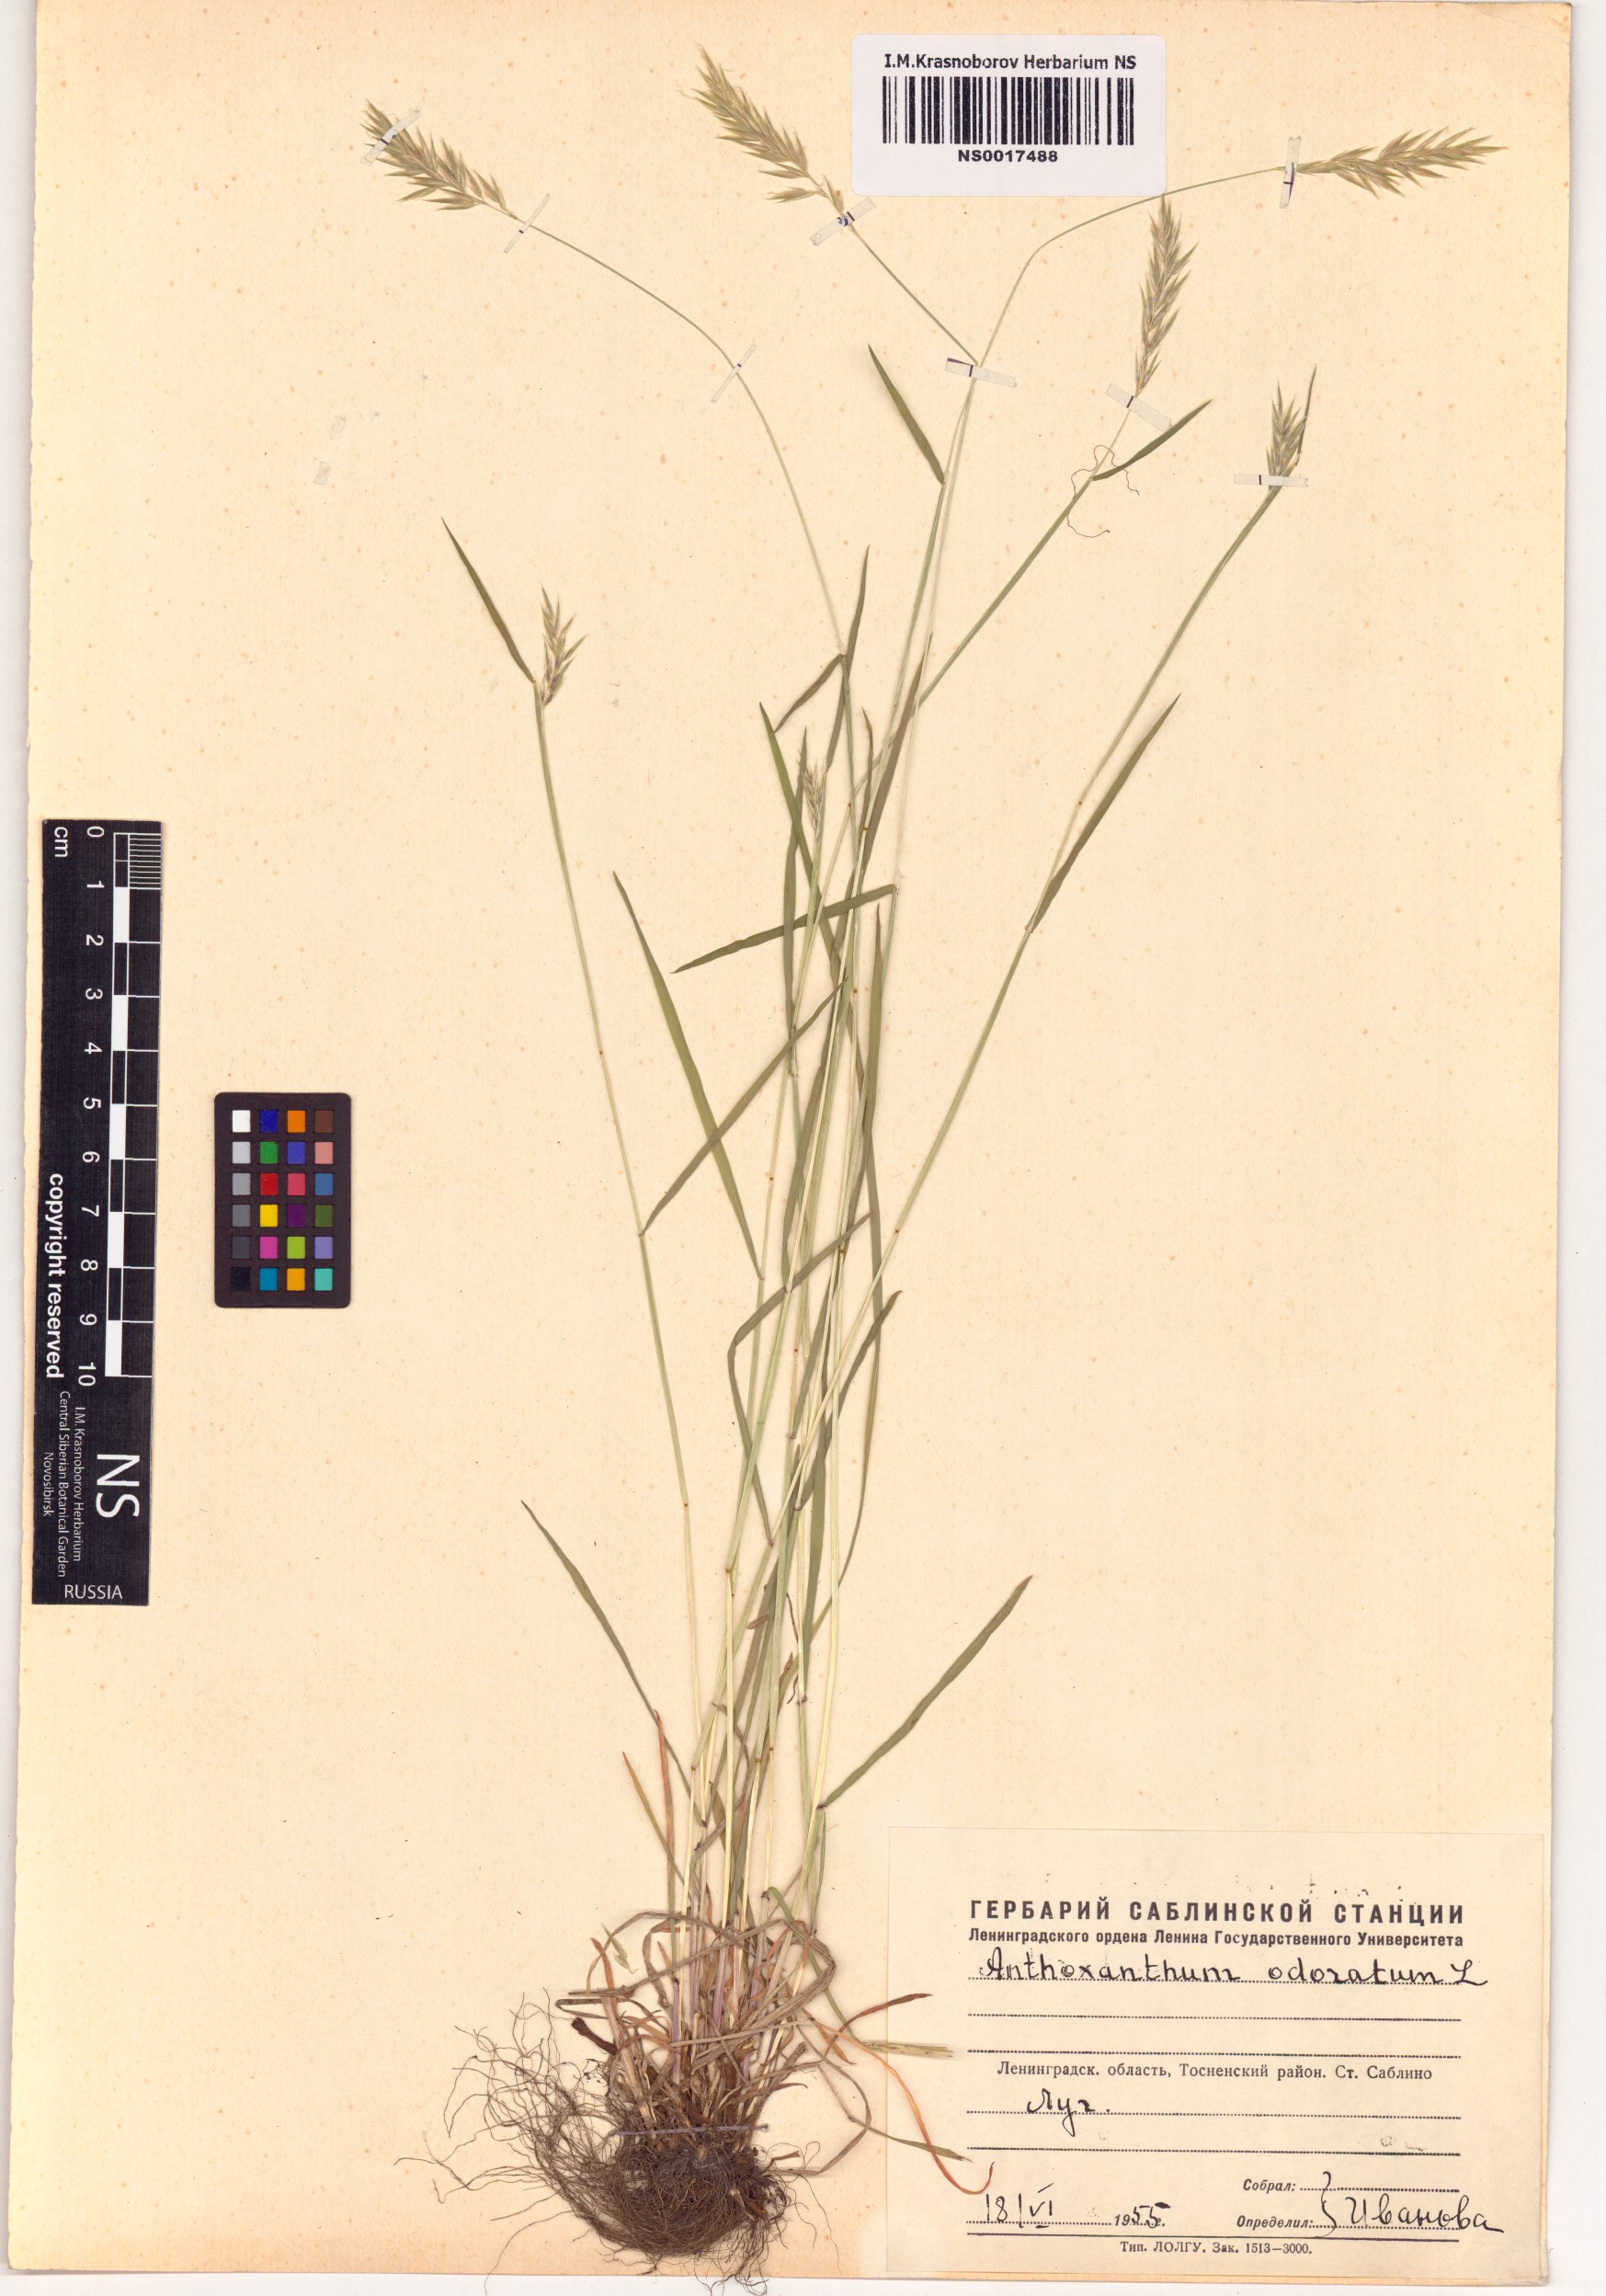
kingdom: Plantae
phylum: Tracheophyta
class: Liliopsida
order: Poales
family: Poaceae
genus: Anthoxanthum
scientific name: Anthoxanthum odoratum
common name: Sweet vernalgrass
